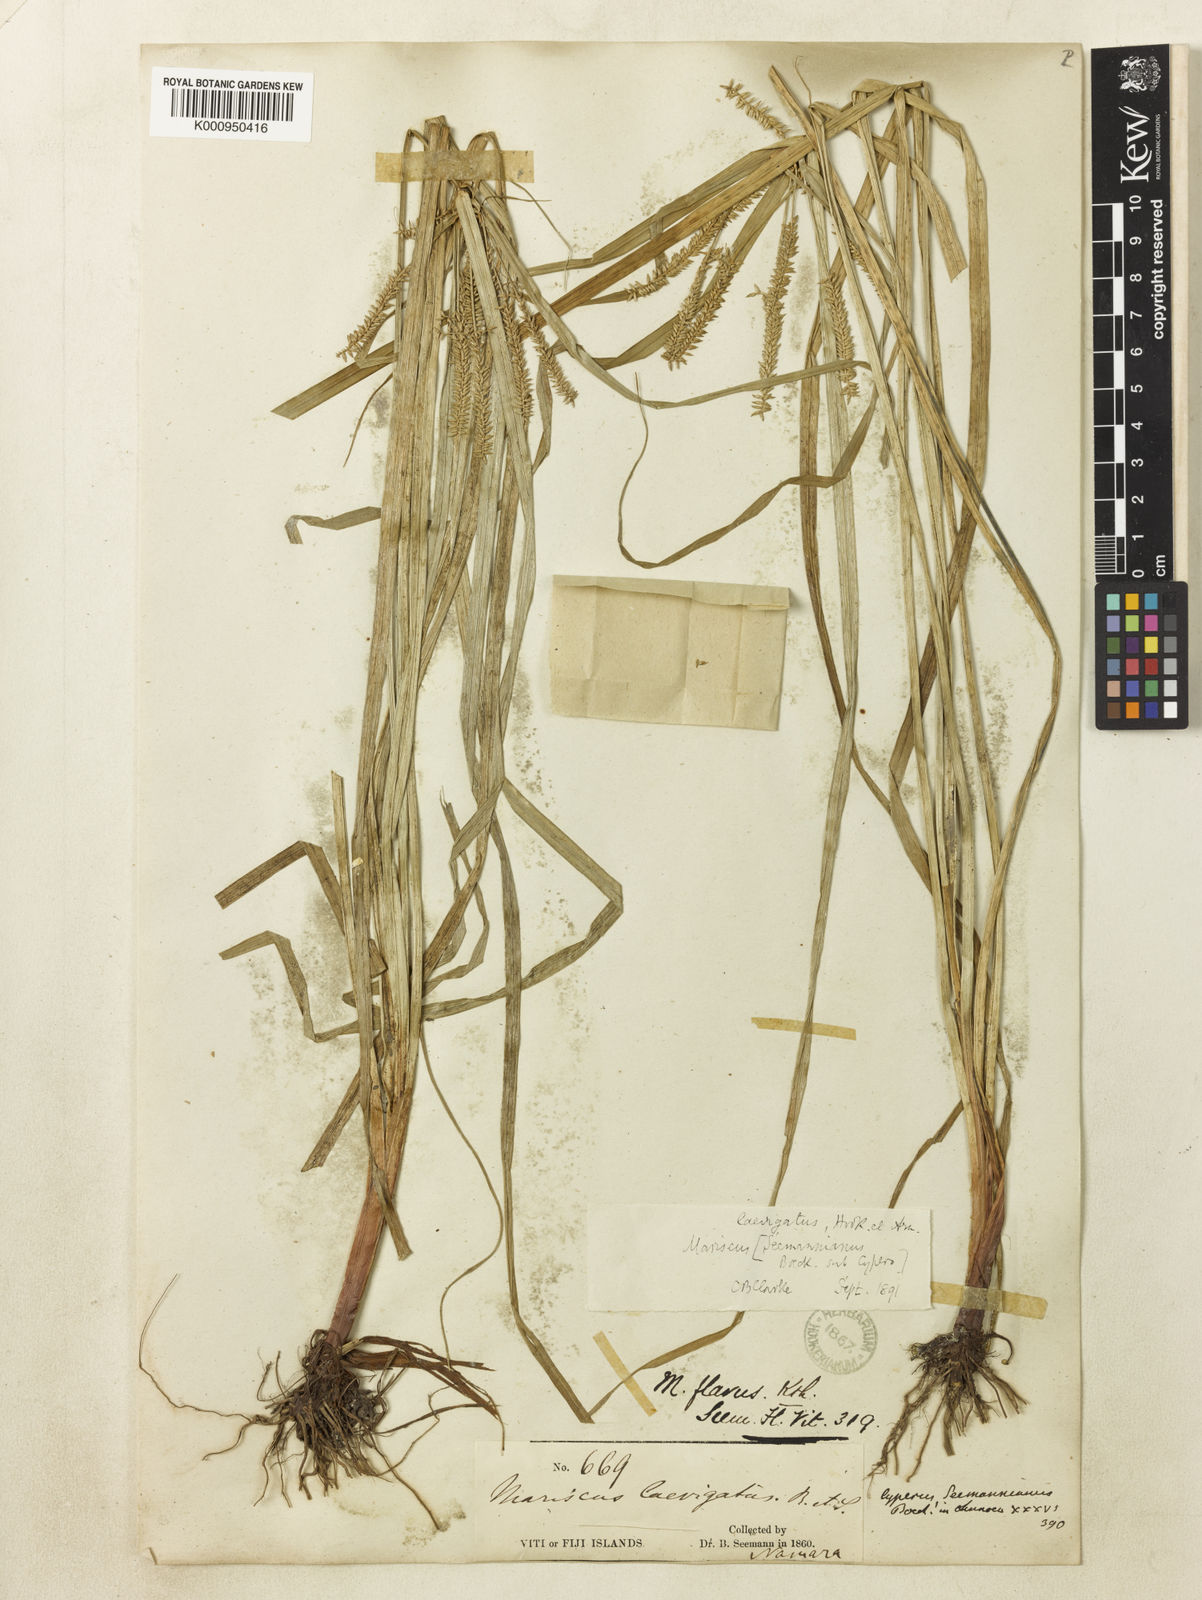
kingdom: Plantae
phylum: Tracheophyta
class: Liliopsida
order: Poales
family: Cyperaceae
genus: Cyperus
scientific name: Cyperus seemannianus
